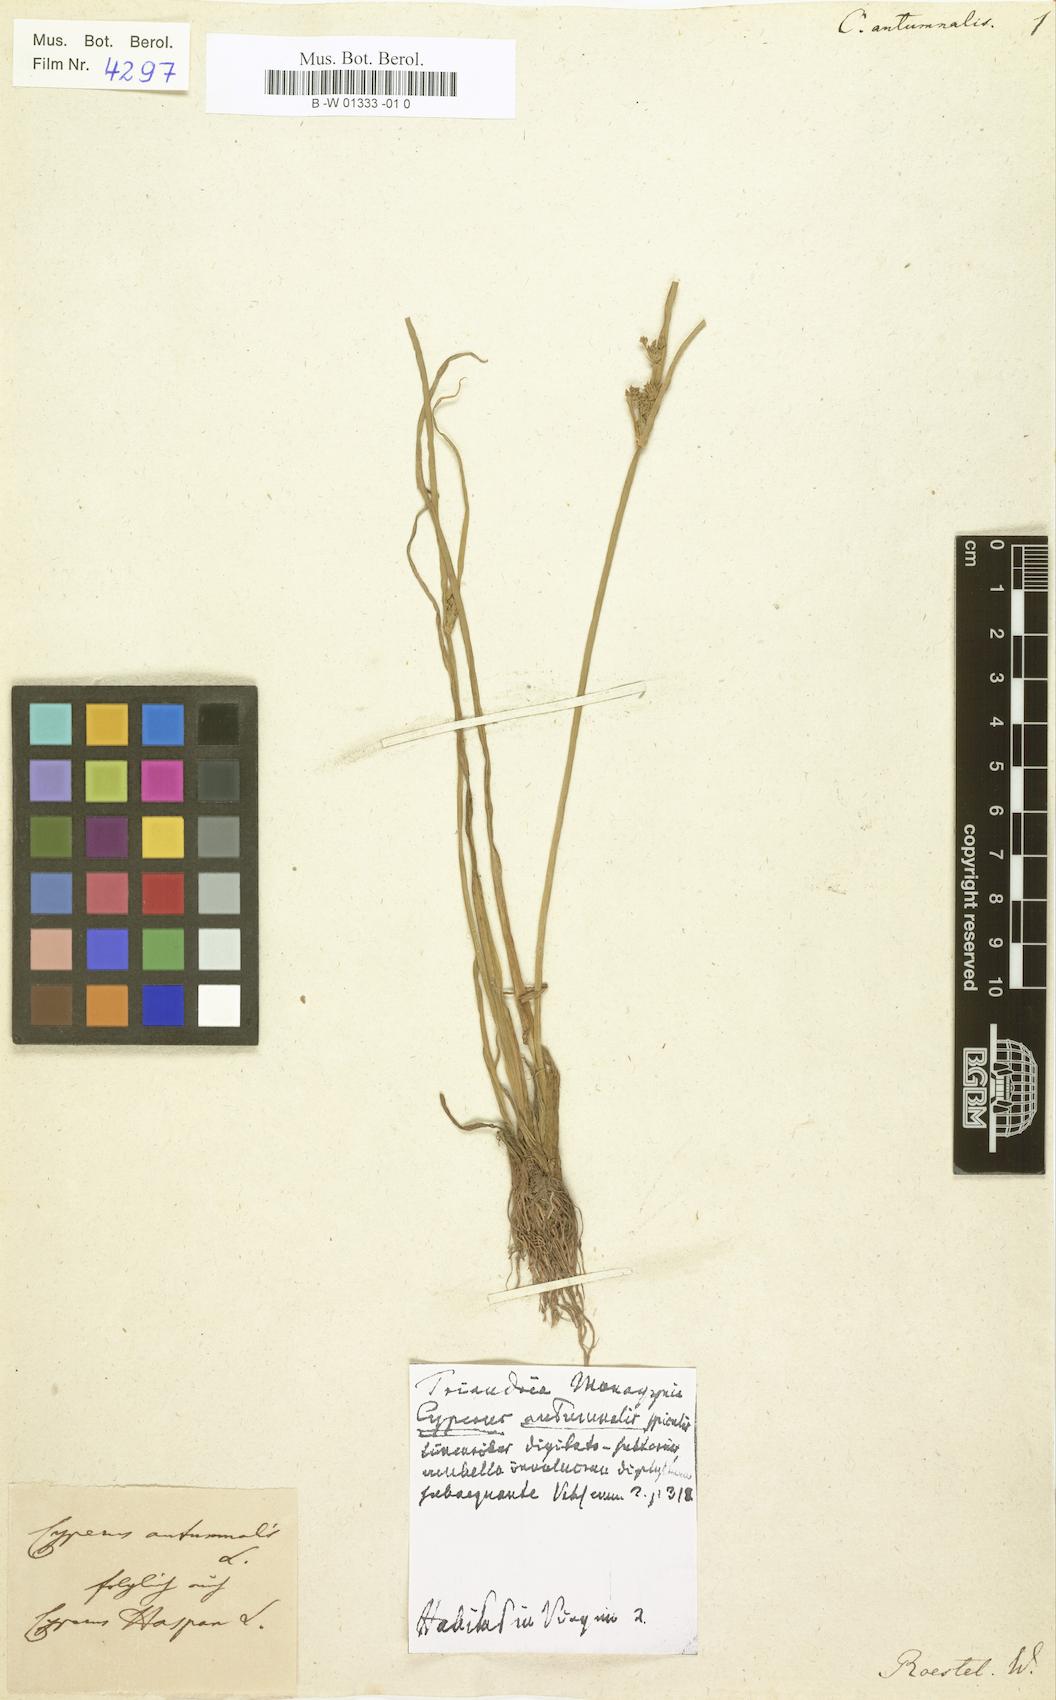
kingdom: Plantae
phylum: Tracheophyta
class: Liliopsida
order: Poales
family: Cyperaceae
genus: Cyperus
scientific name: Cyperus
